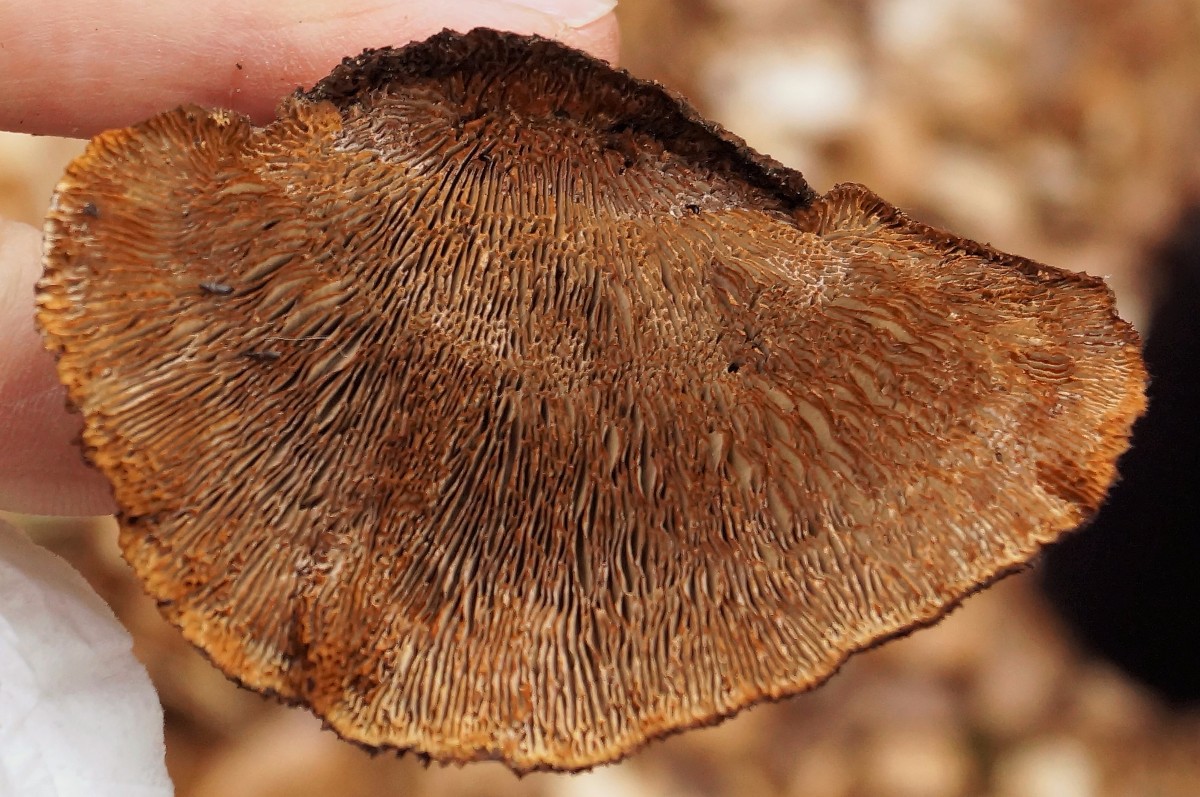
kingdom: Fungi
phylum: Basidiomycota
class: Agaricomycetes
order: Gloeophyllales
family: Gloeophyllaceae
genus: Gloeophyllum
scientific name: Gloeophyllum sepiarium
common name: fyrre-korkhat
